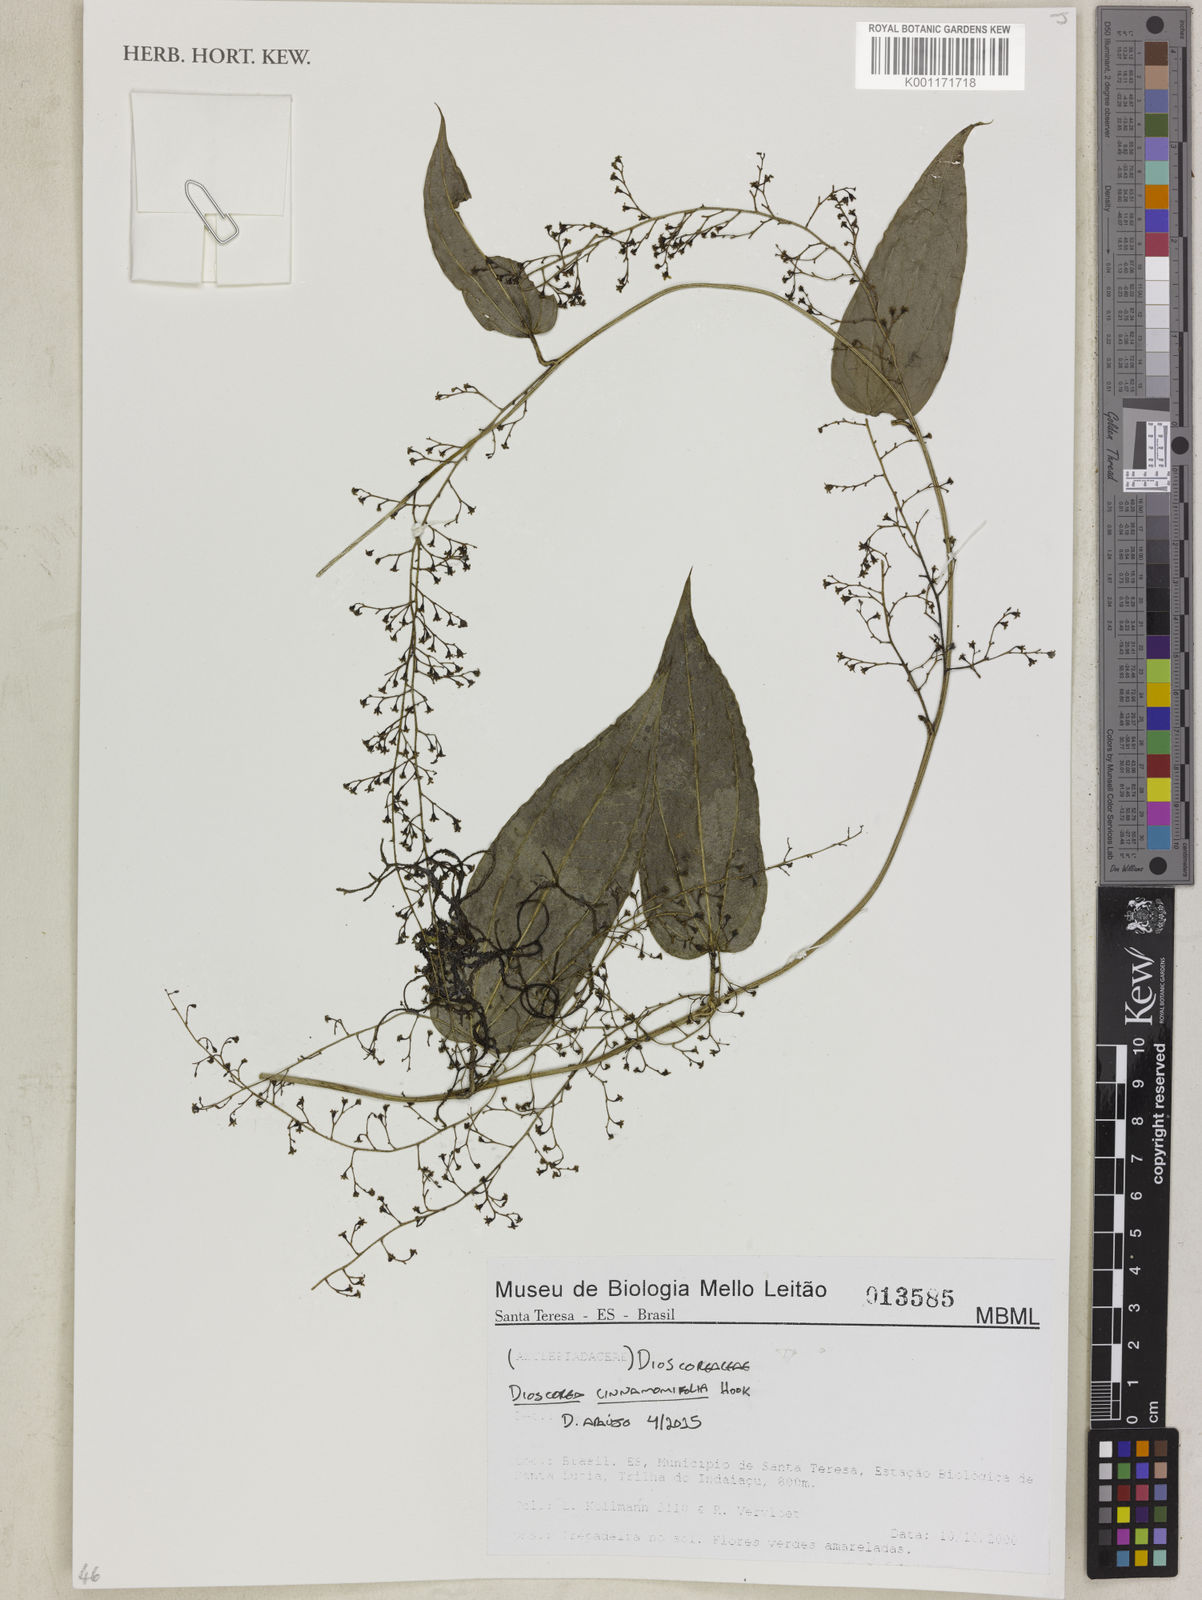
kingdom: Plantae
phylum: Tracheophyta
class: Liliopsida
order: Dioscoreales
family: Dioscoreaceae
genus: Dioscorea
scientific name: Dioscorea cinnamomifolia
